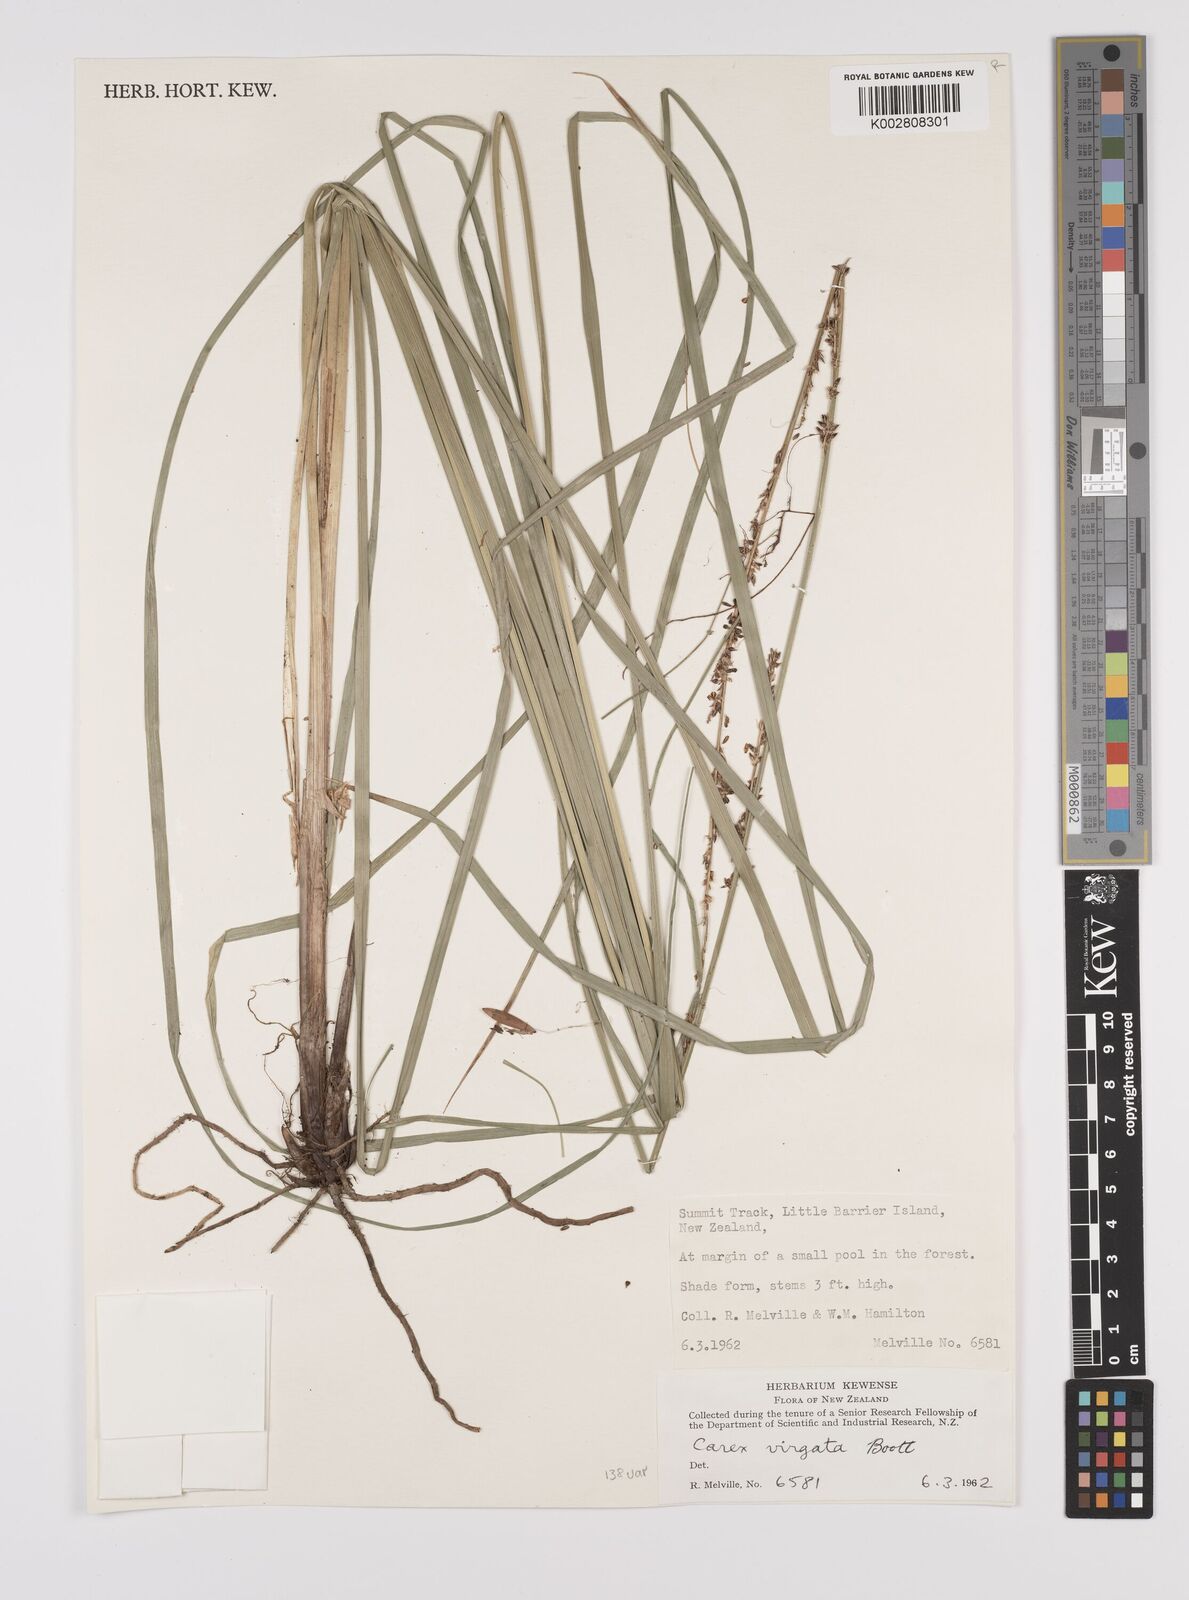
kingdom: Plantae
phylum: Tracheophyta
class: Liliopsida
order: Poales
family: Cyperaceae
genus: Carex
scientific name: Carex appressa
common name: Tussock sedge
